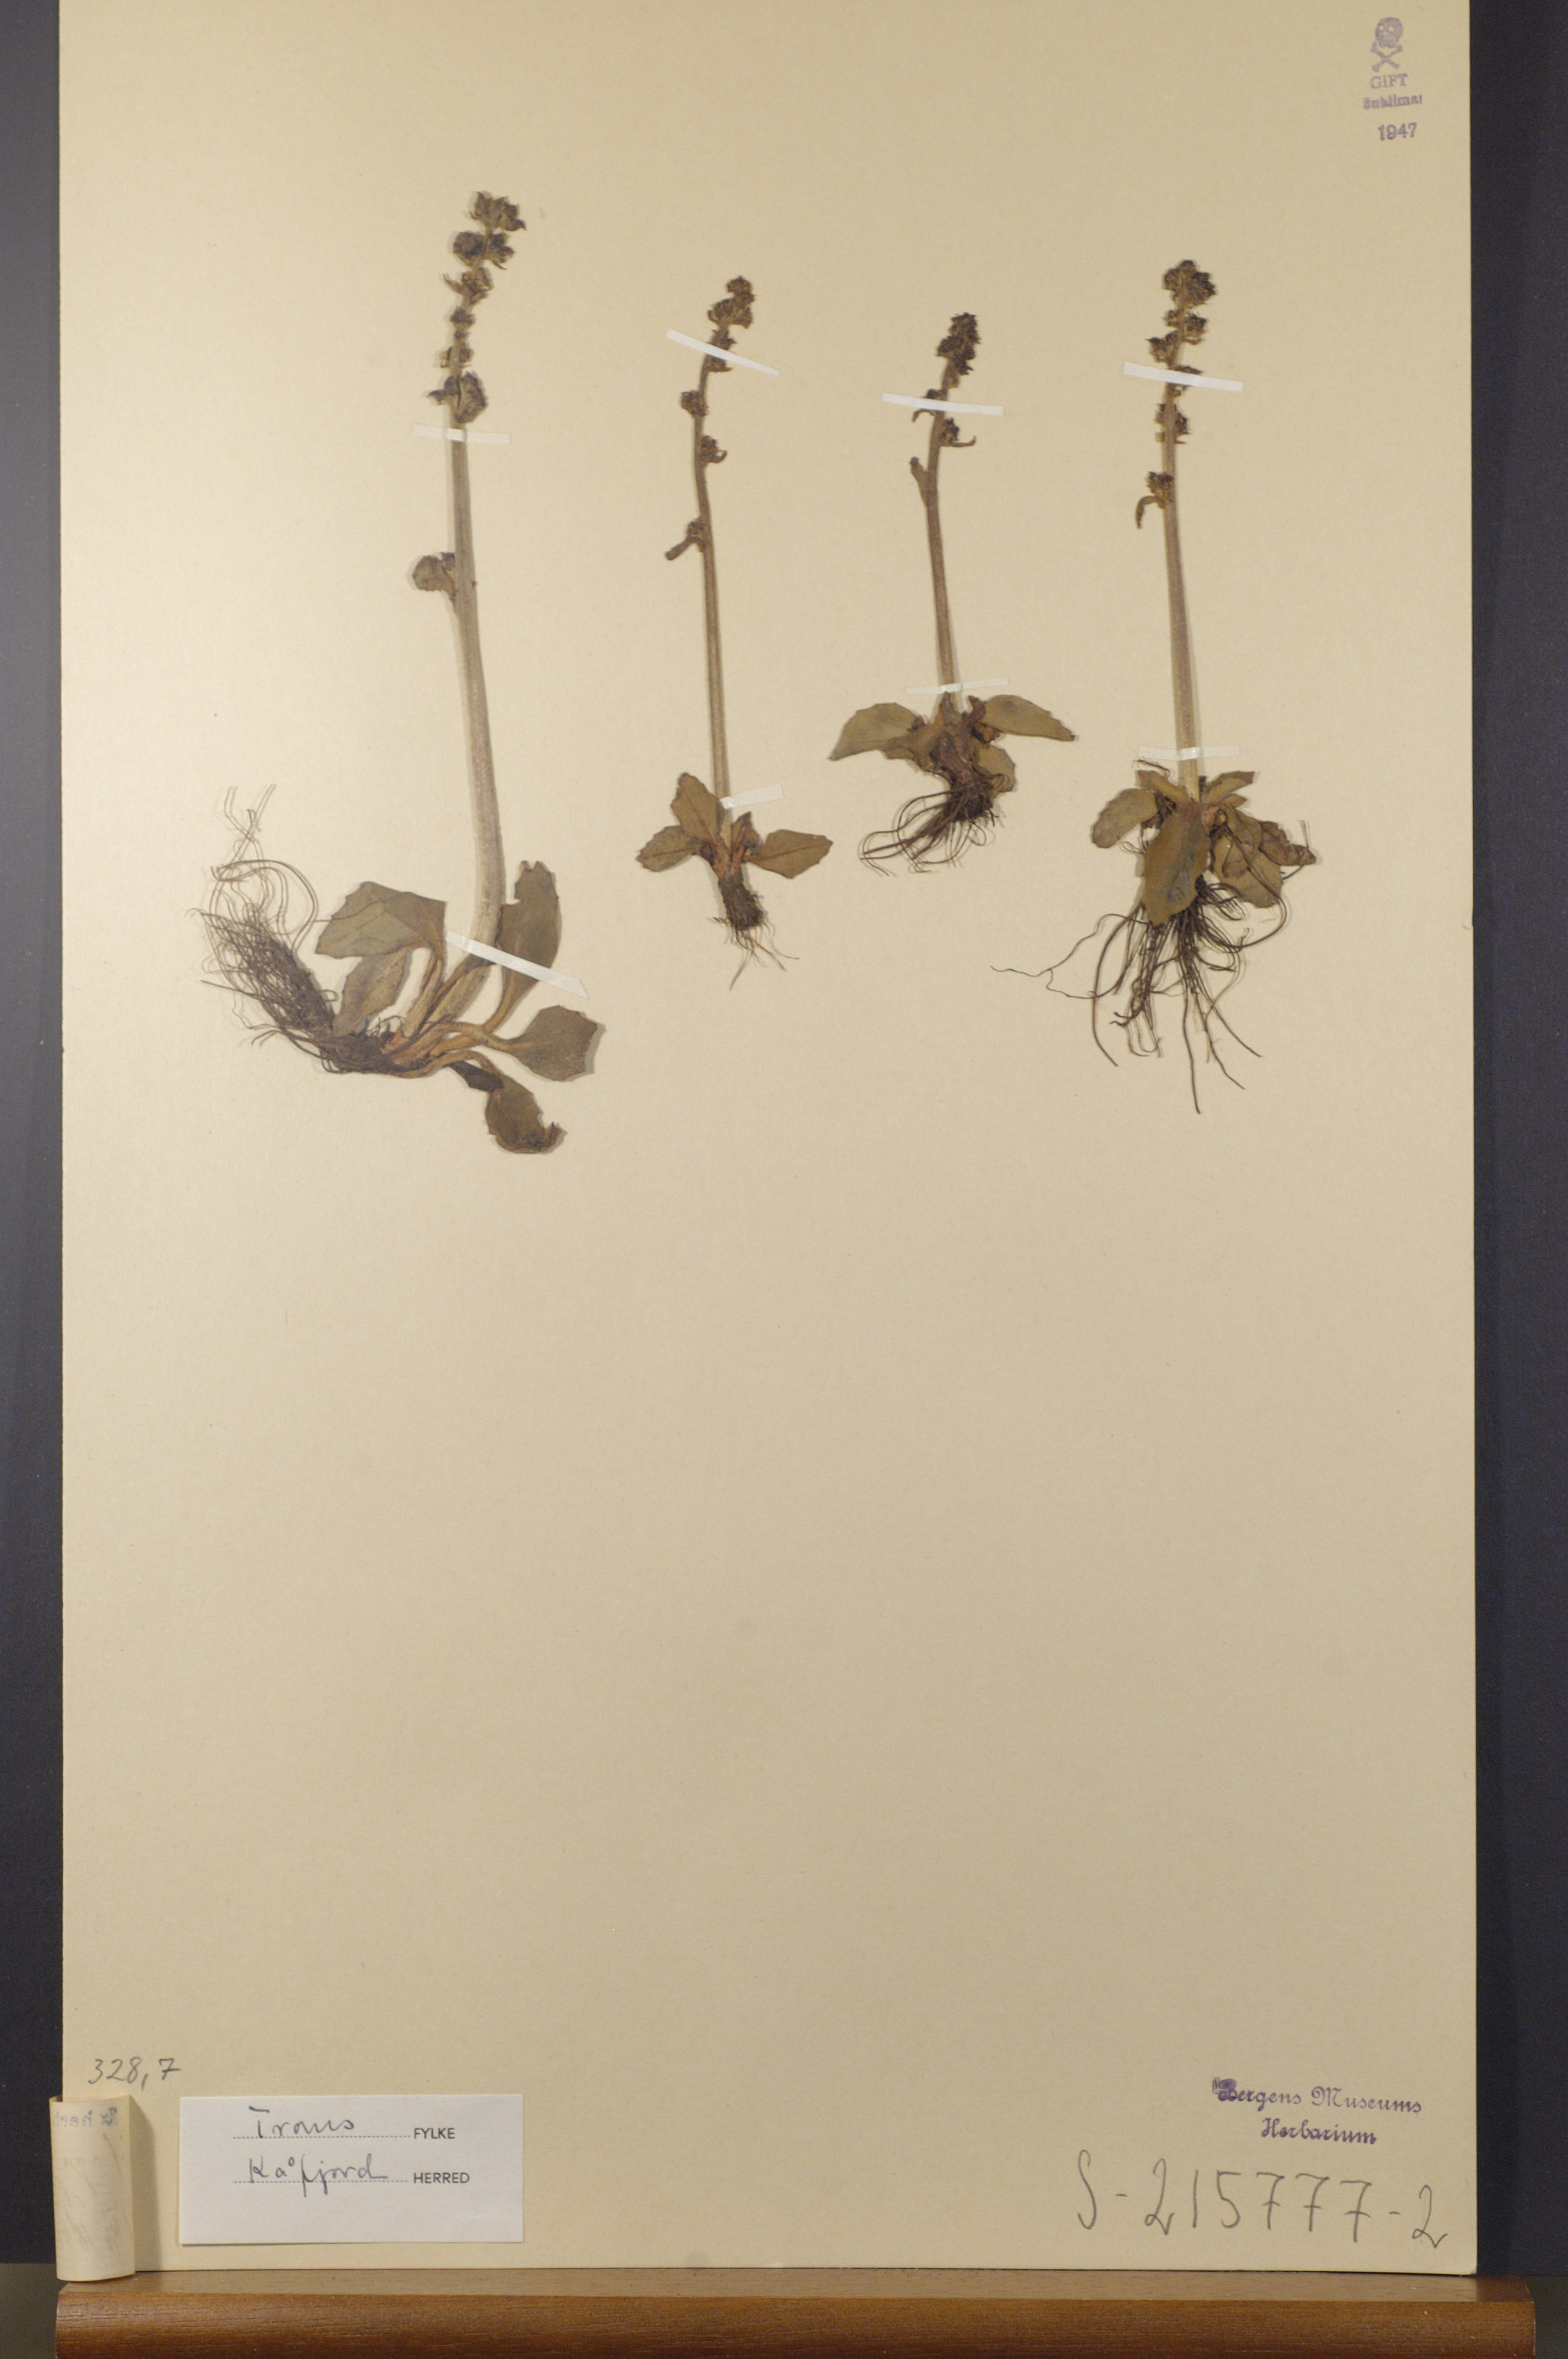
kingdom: Plantae
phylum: Tracheophyta
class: Magnoliopsida
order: Saxifragales
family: Saxifragaceae
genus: Micranthes
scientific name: Micranthes hieraciifolia
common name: Hawkweed-leaved saxifrage
